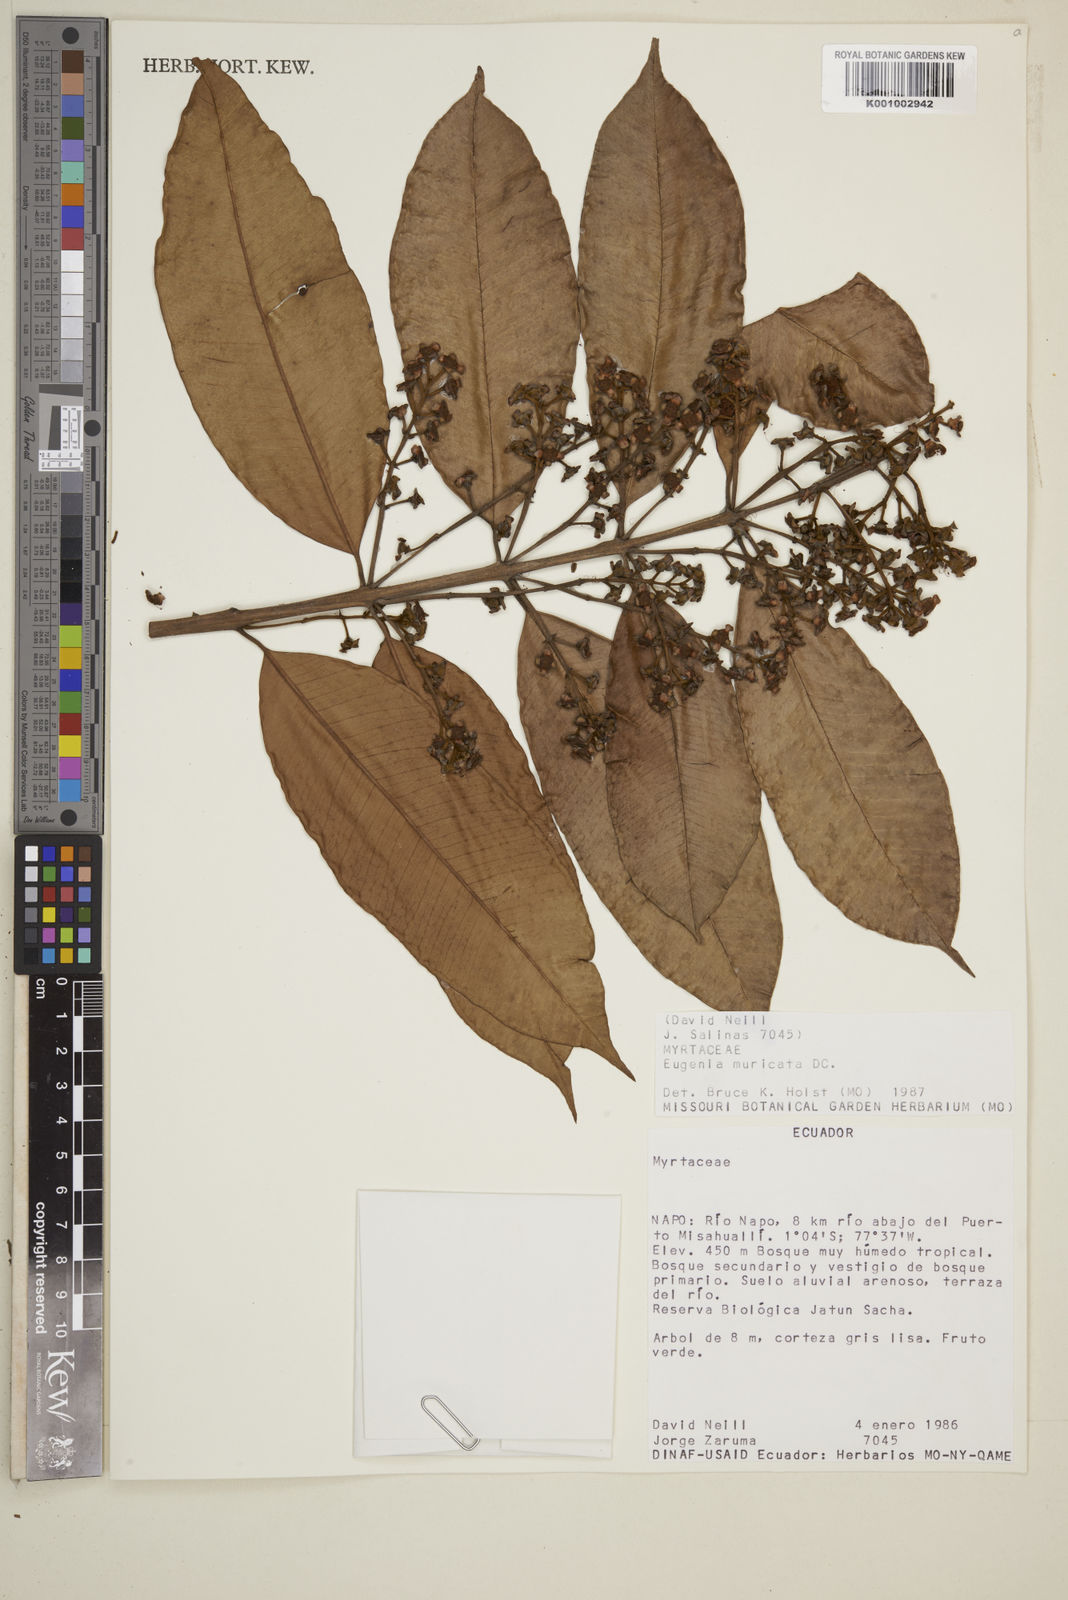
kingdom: Plantae
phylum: Tracheophyta
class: Magnoliopsida
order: Myrtales
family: Myrtaceae
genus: Eugenia
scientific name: Eugenia muricata
